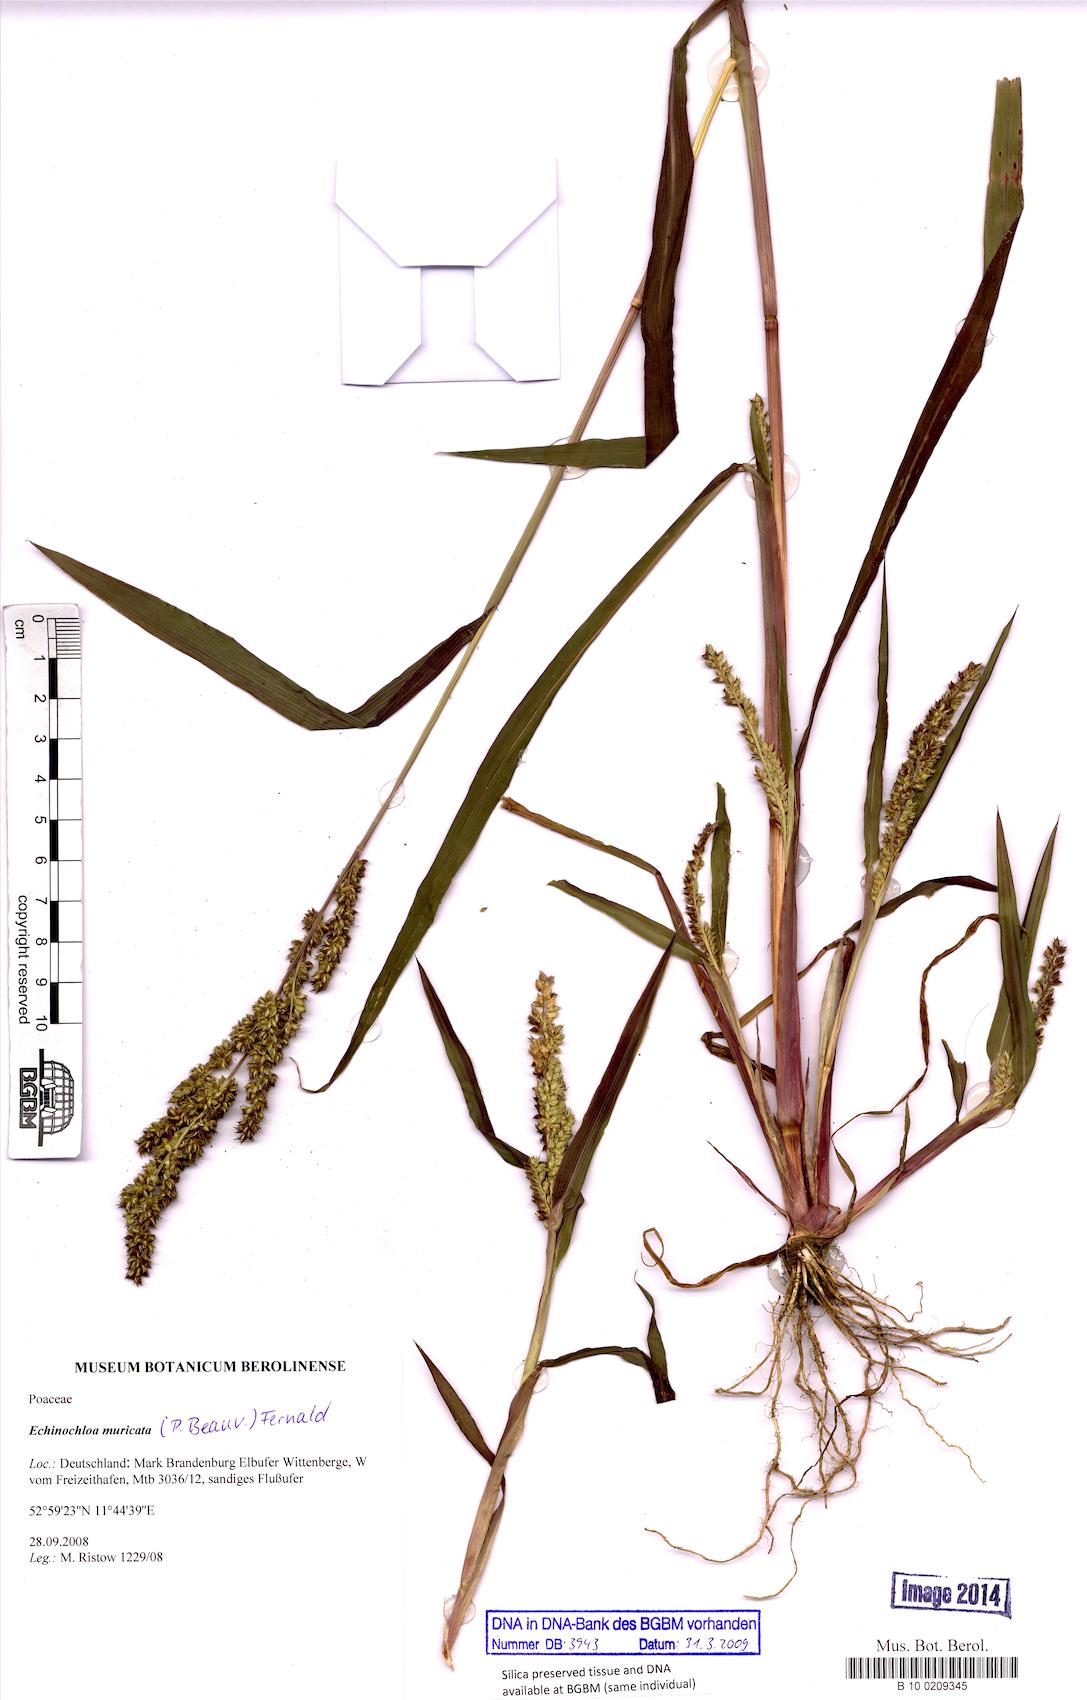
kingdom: Plantae
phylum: Tracheophyta
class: Liliopsida
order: Poales
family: Poaceae
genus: Echinochloa
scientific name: Echinochloa muricata
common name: American barnyard grass
